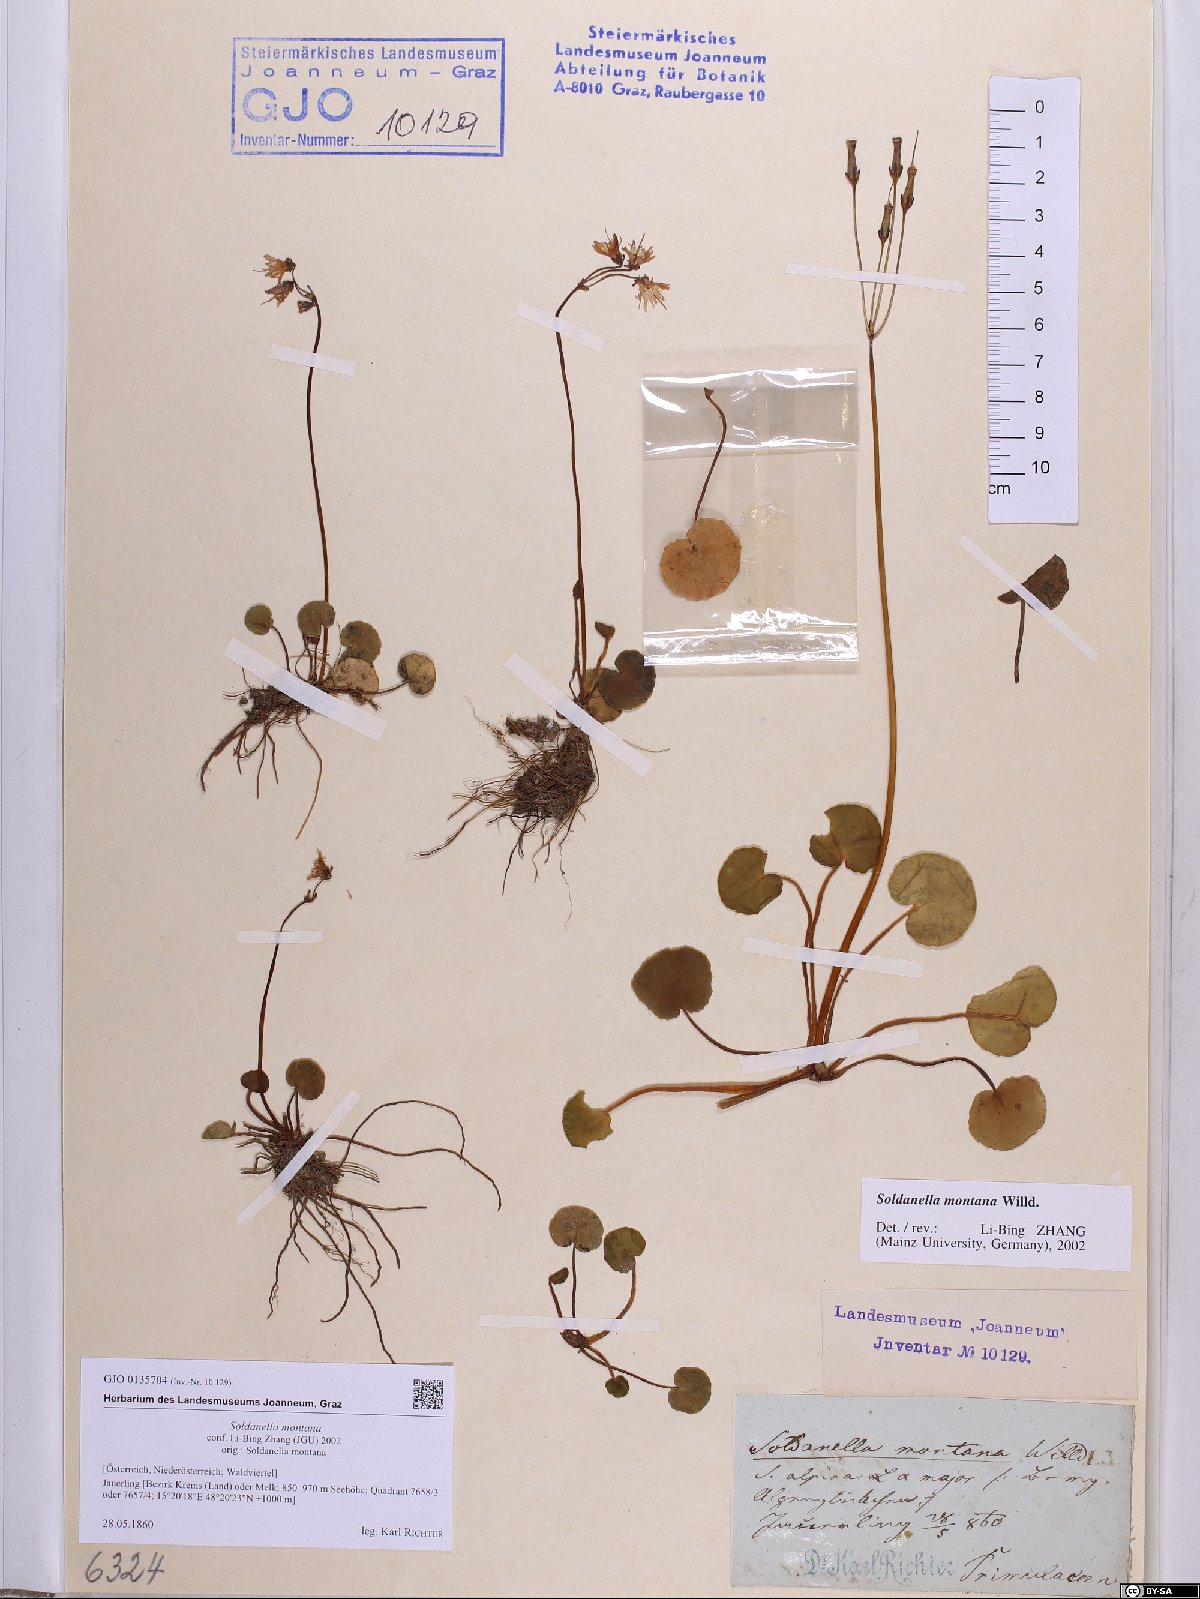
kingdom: Plantae
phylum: Tracheophyta
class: Magnoliopsida
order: Ericales
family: Primulaceae
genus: Soldanella
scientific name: Soldanella montana
